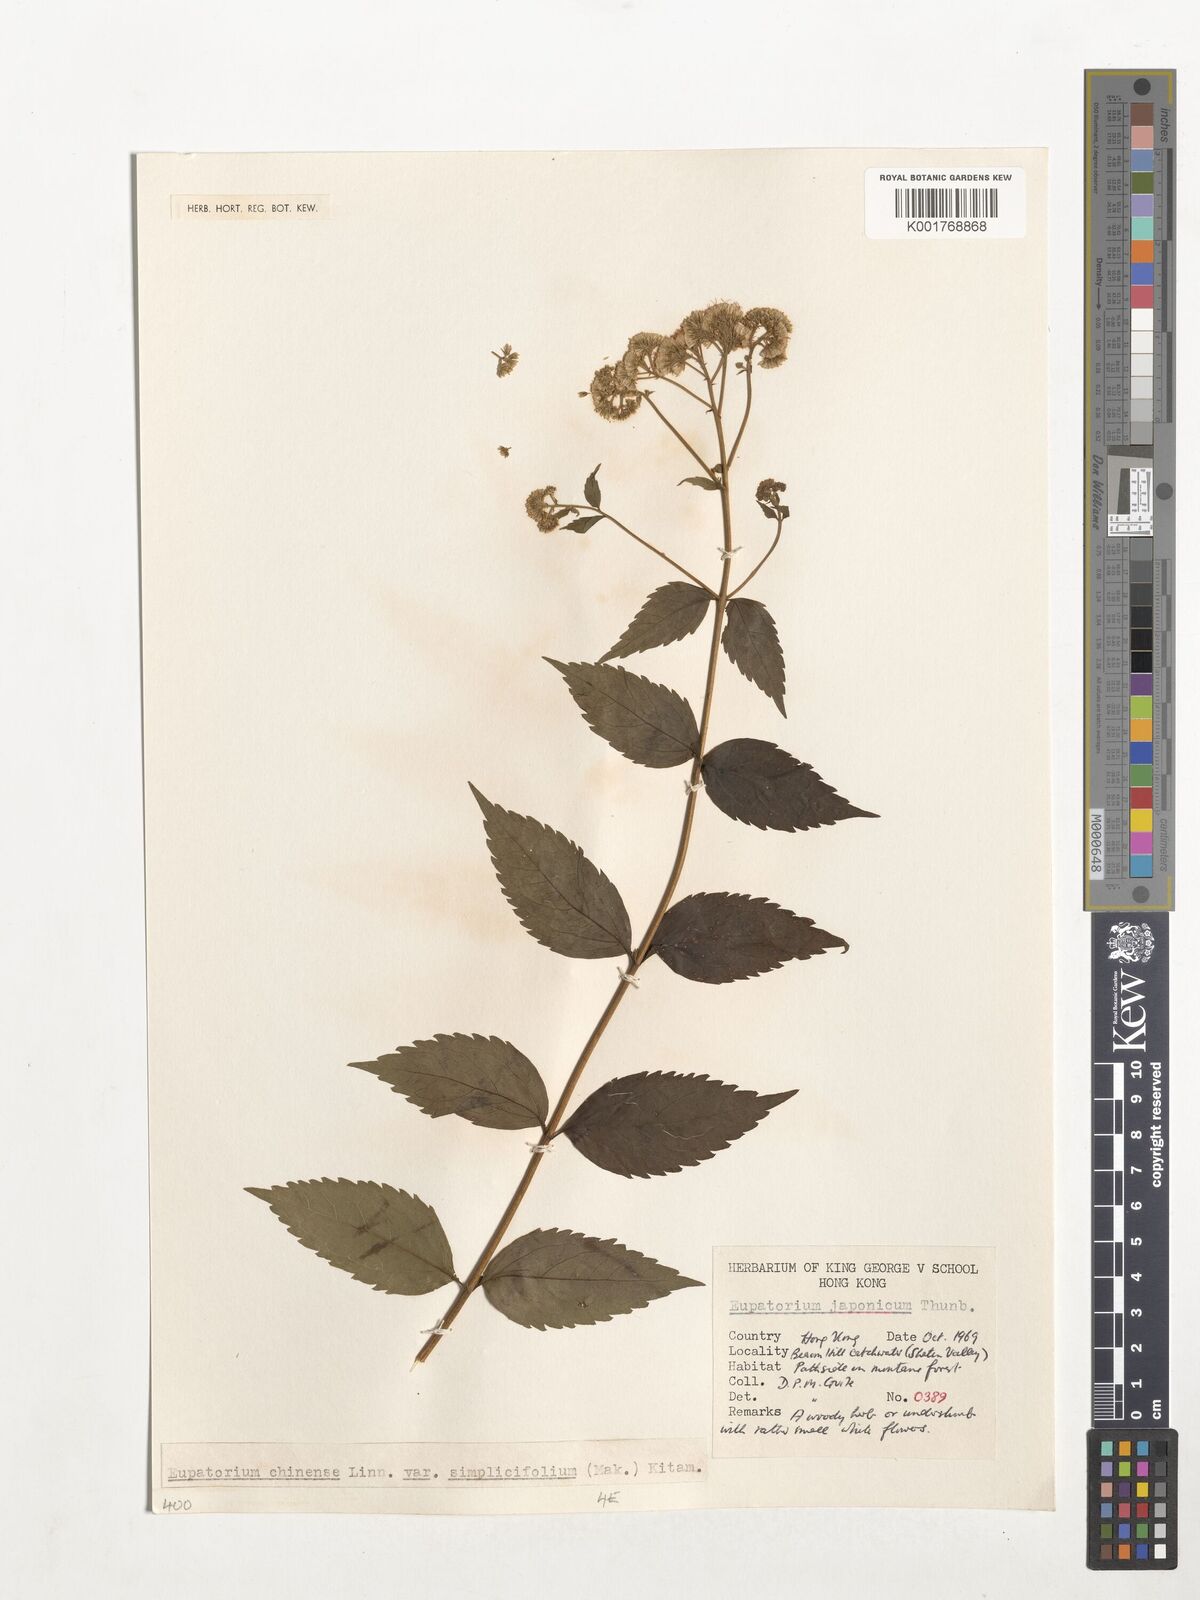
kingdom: Plantae
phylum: Tracheophyta
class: Magnoliopsida
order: Asterales
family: Asteraceae
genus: Eupatorium
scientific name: Eupatorium chinense
